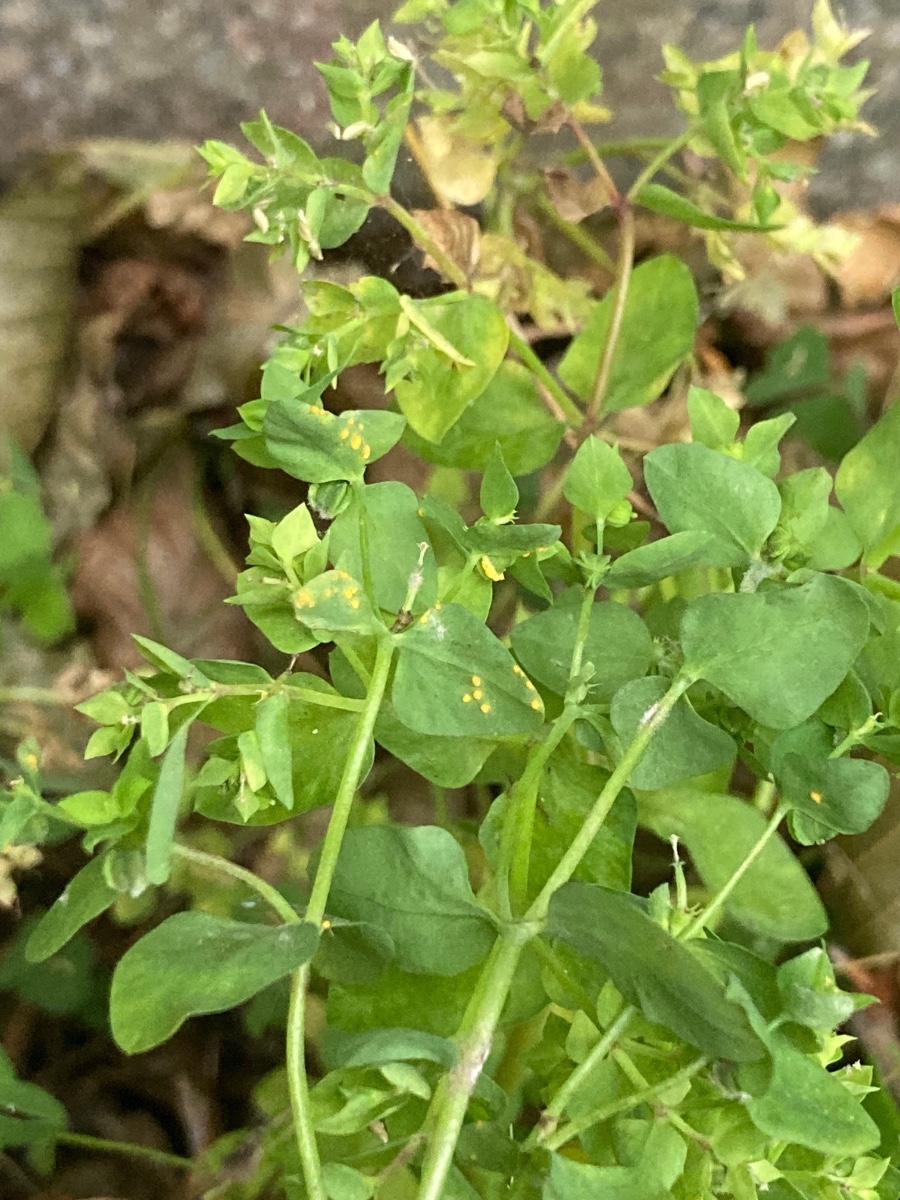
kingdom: Fungi
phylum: Basidiomycota
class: Pucciniomycetes
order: Pucciniales
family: Melampsoraceae
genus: Melampsora
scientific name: Melampsora euphorbiae
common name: vortemælk-skorperust
